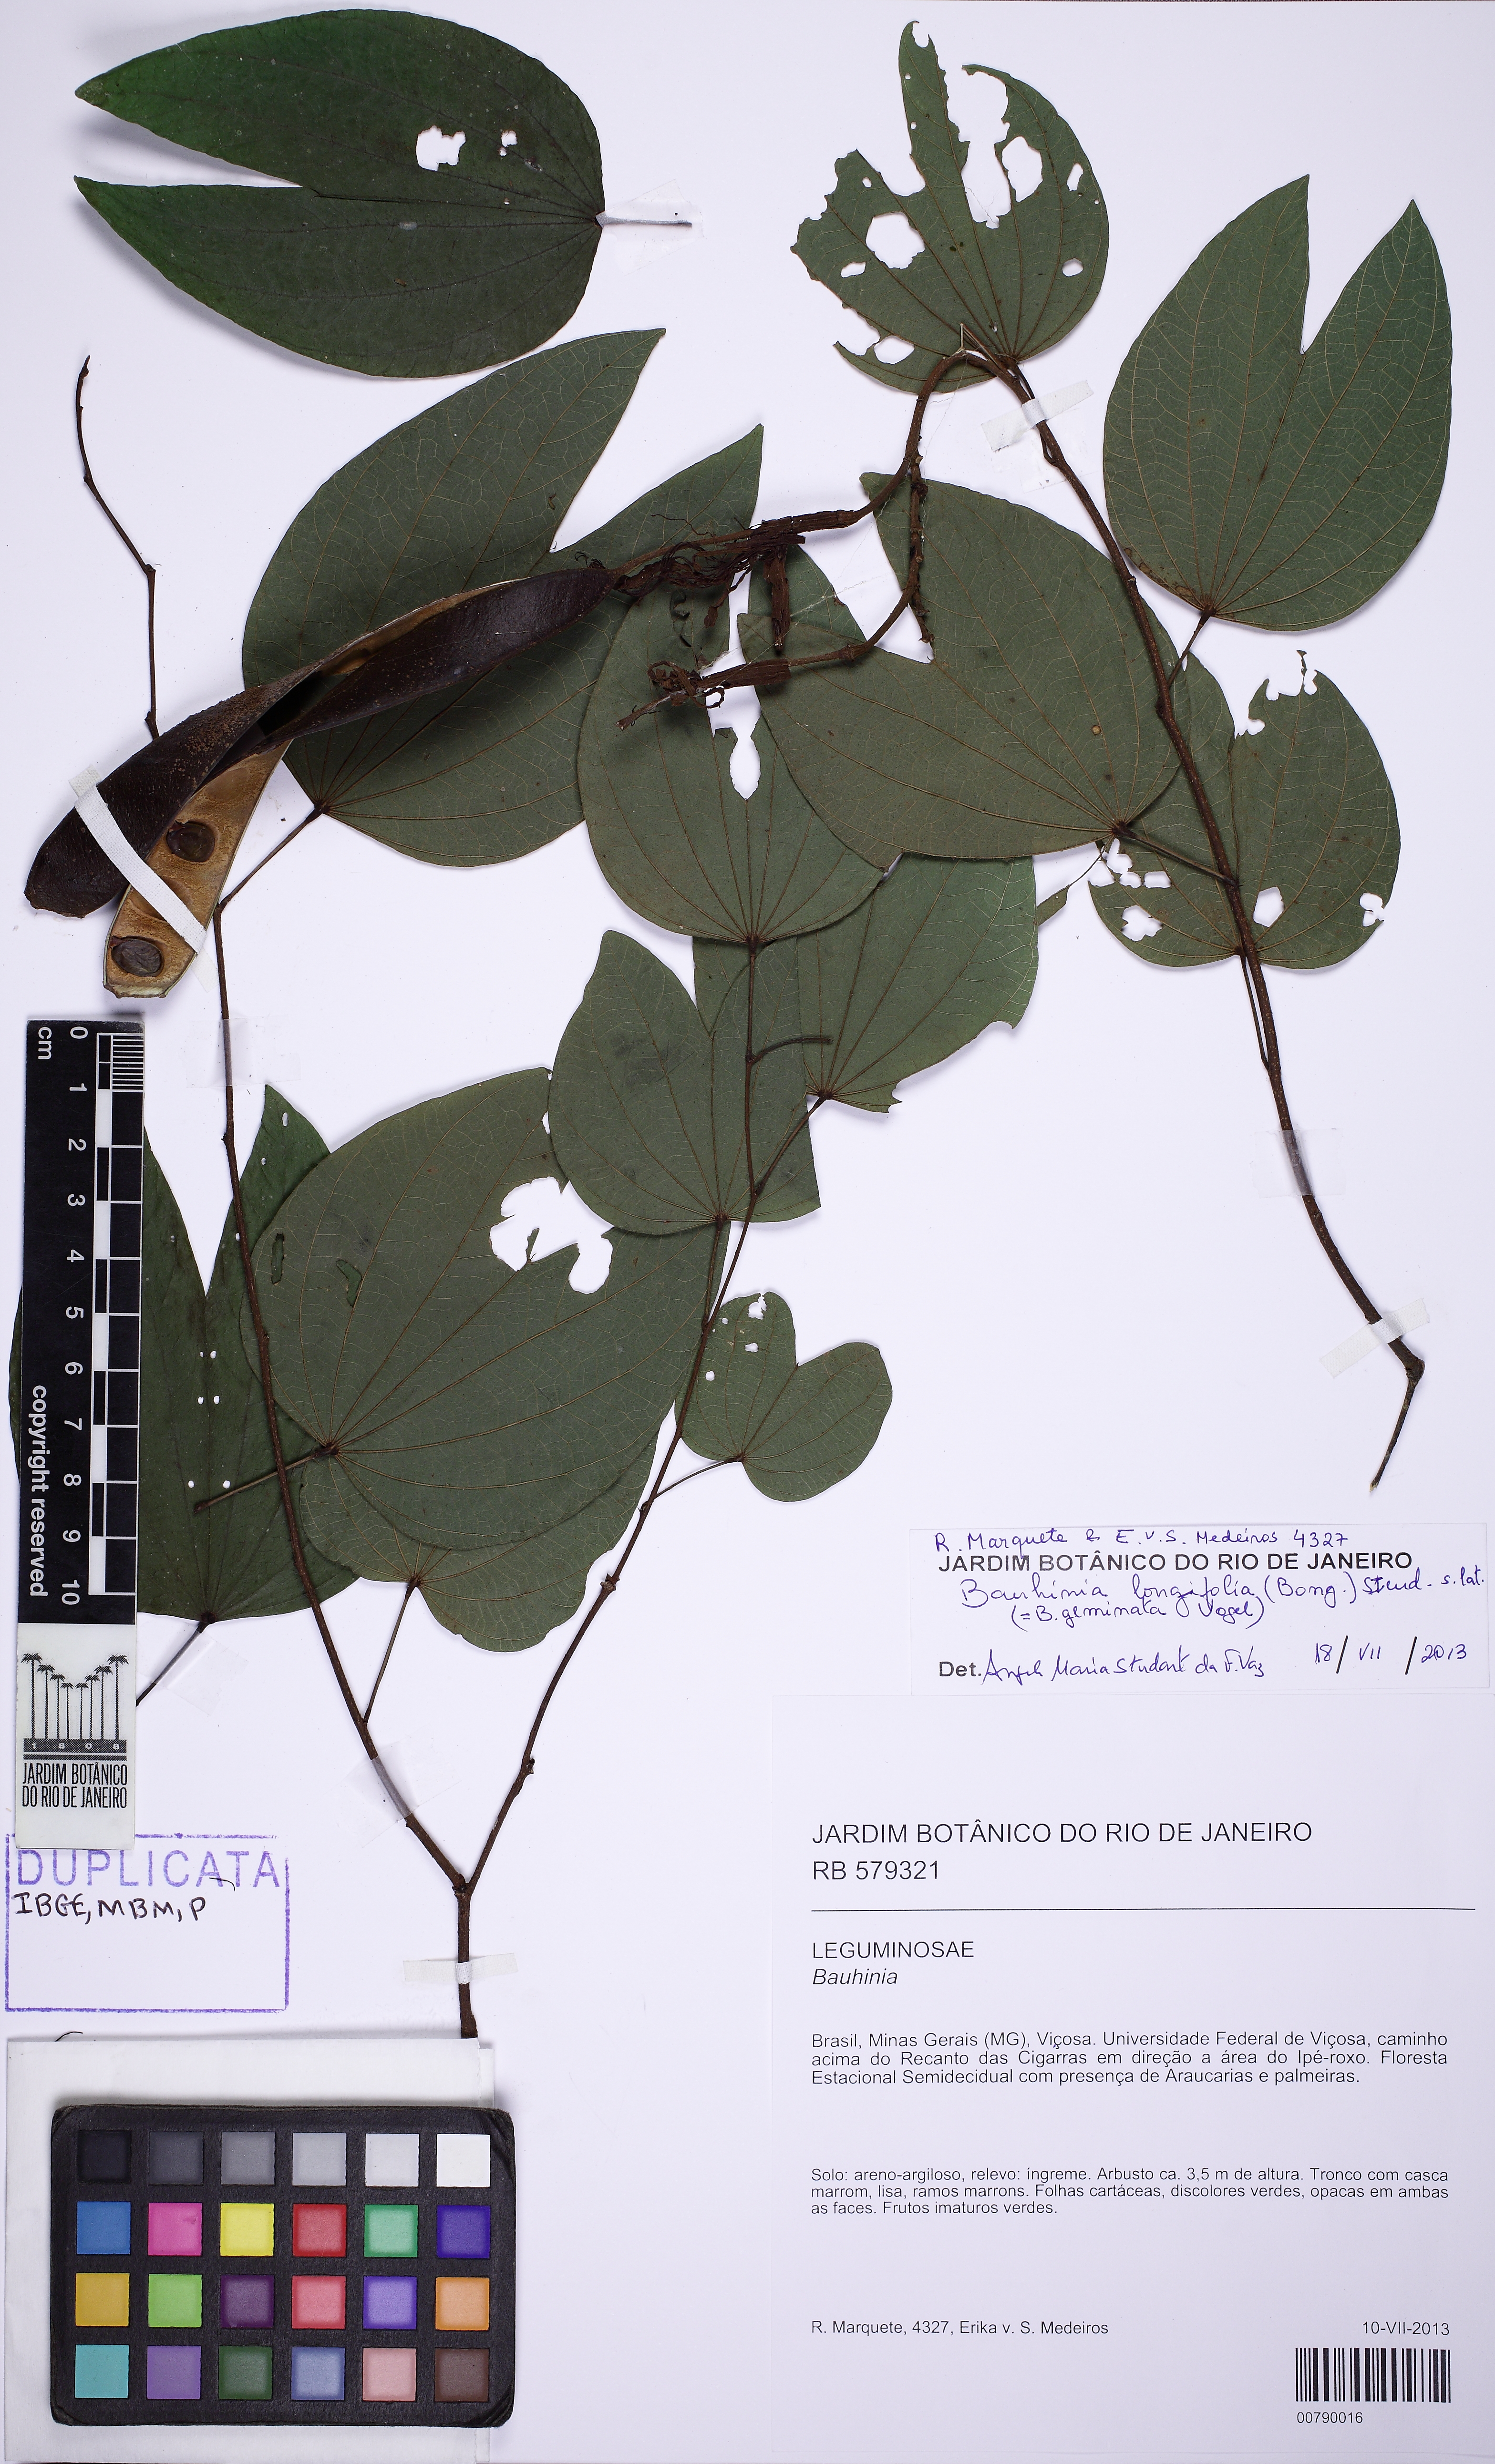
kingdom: Plantae
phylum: Tracheophyta
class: Magnoliopsida
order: Fabales
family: Fabaceae
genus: Bauhinia
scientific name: Bauhinia longifolia
